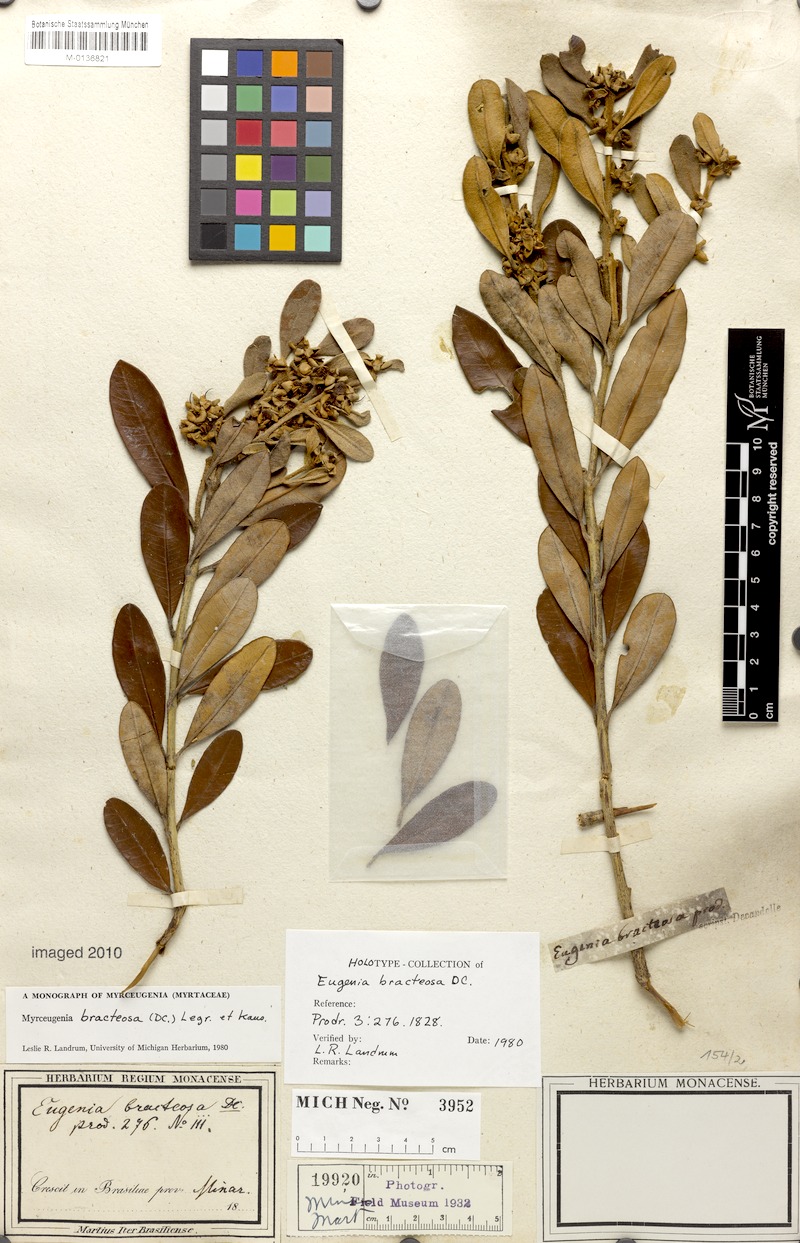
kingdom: Plantae
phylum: Tracheophyta
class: Magnoliopsida
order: Myrtales
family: Myrtaceae
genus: Myrceugenia
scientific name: Myrceugenia bracteosa
